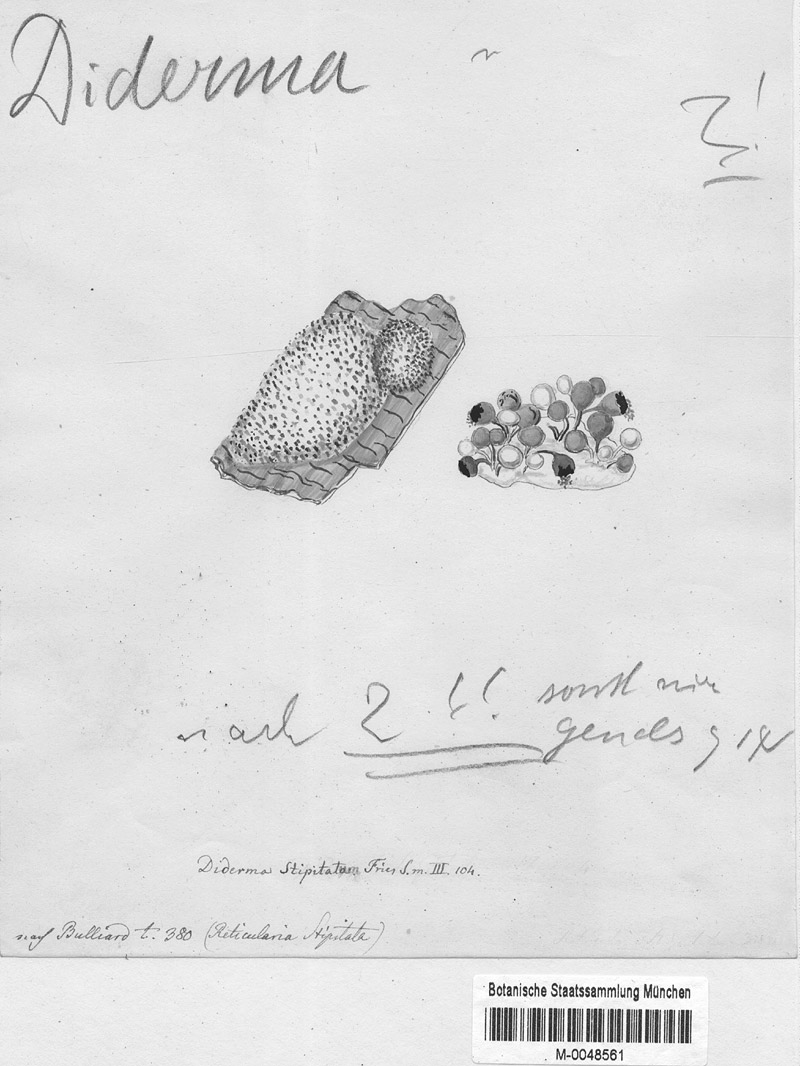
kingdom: Protozoa
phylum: Mycetozoa
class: Myxomycetes
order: Physarales
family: Didymiaceae
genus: Diderma
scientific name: Diderma spumarioides
